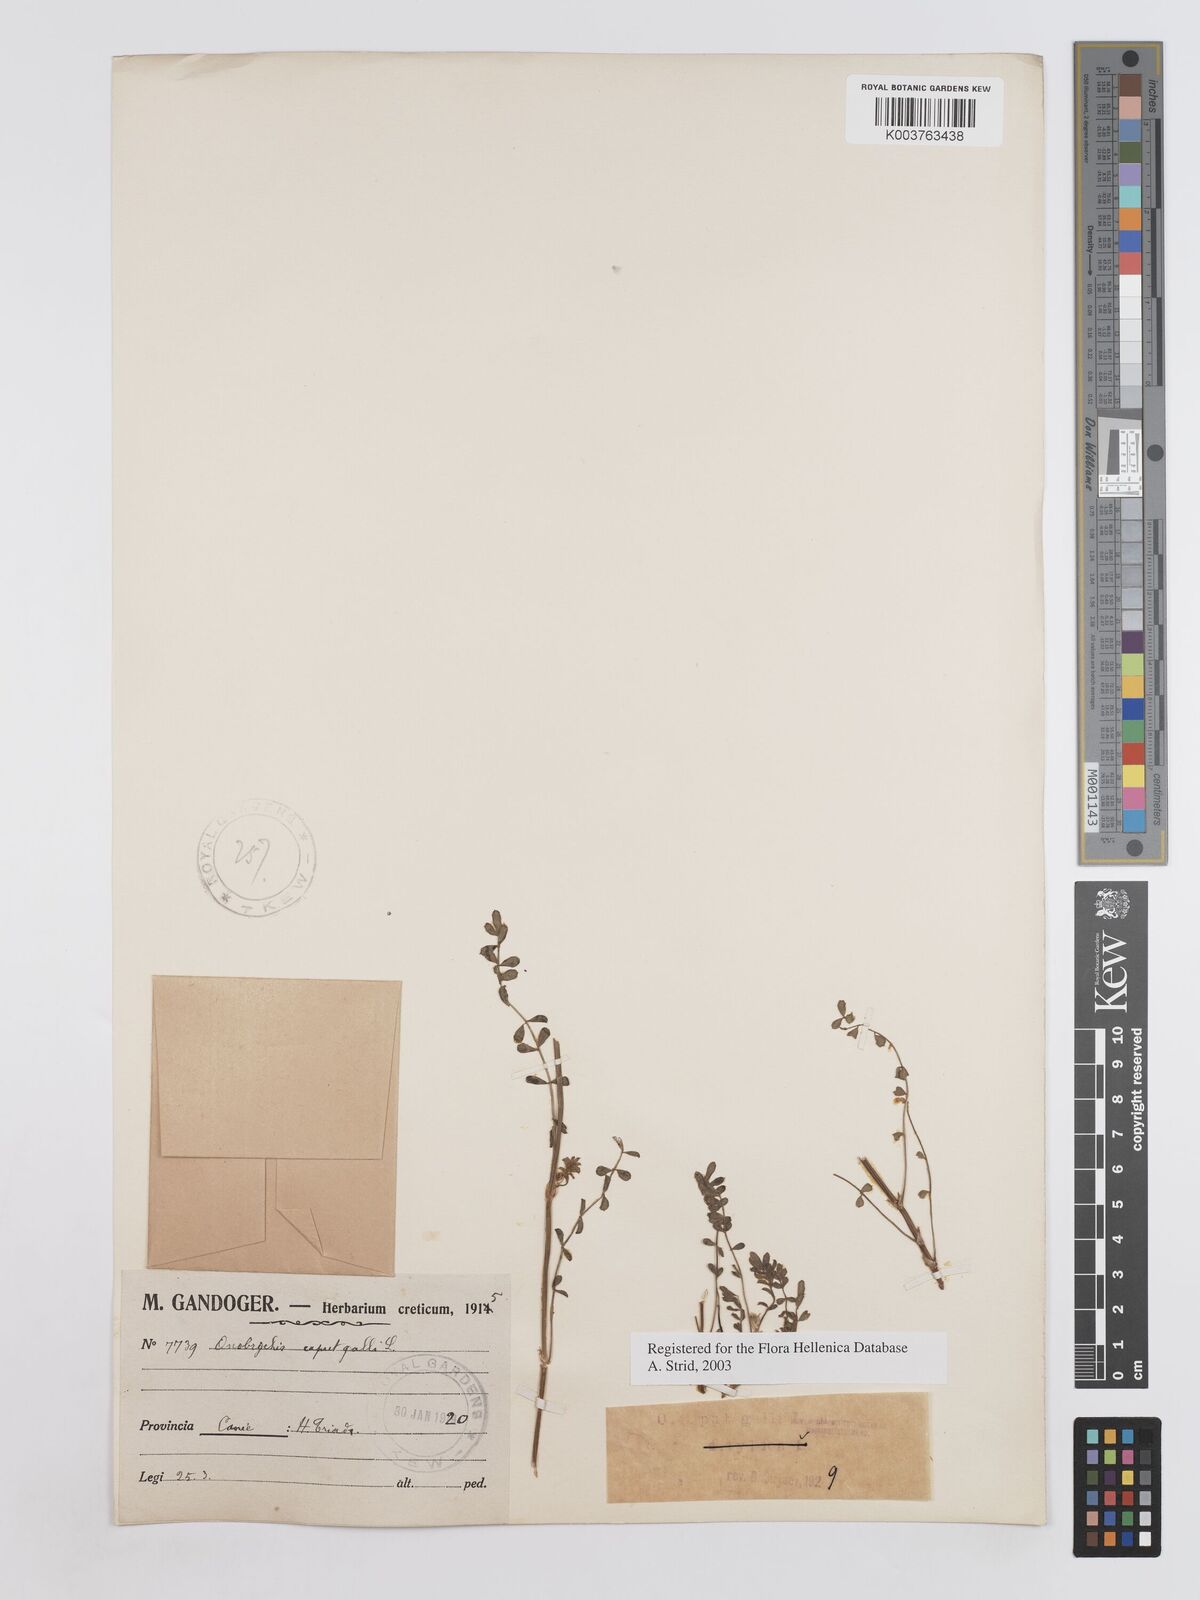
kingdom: Plantae
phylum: Tracheophyta
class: Magnoliopsida
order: Fabales
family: Fabaceae
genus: Onobrychis
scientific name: Onobrychis caput-galli
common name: Cockscomb sainfoin
